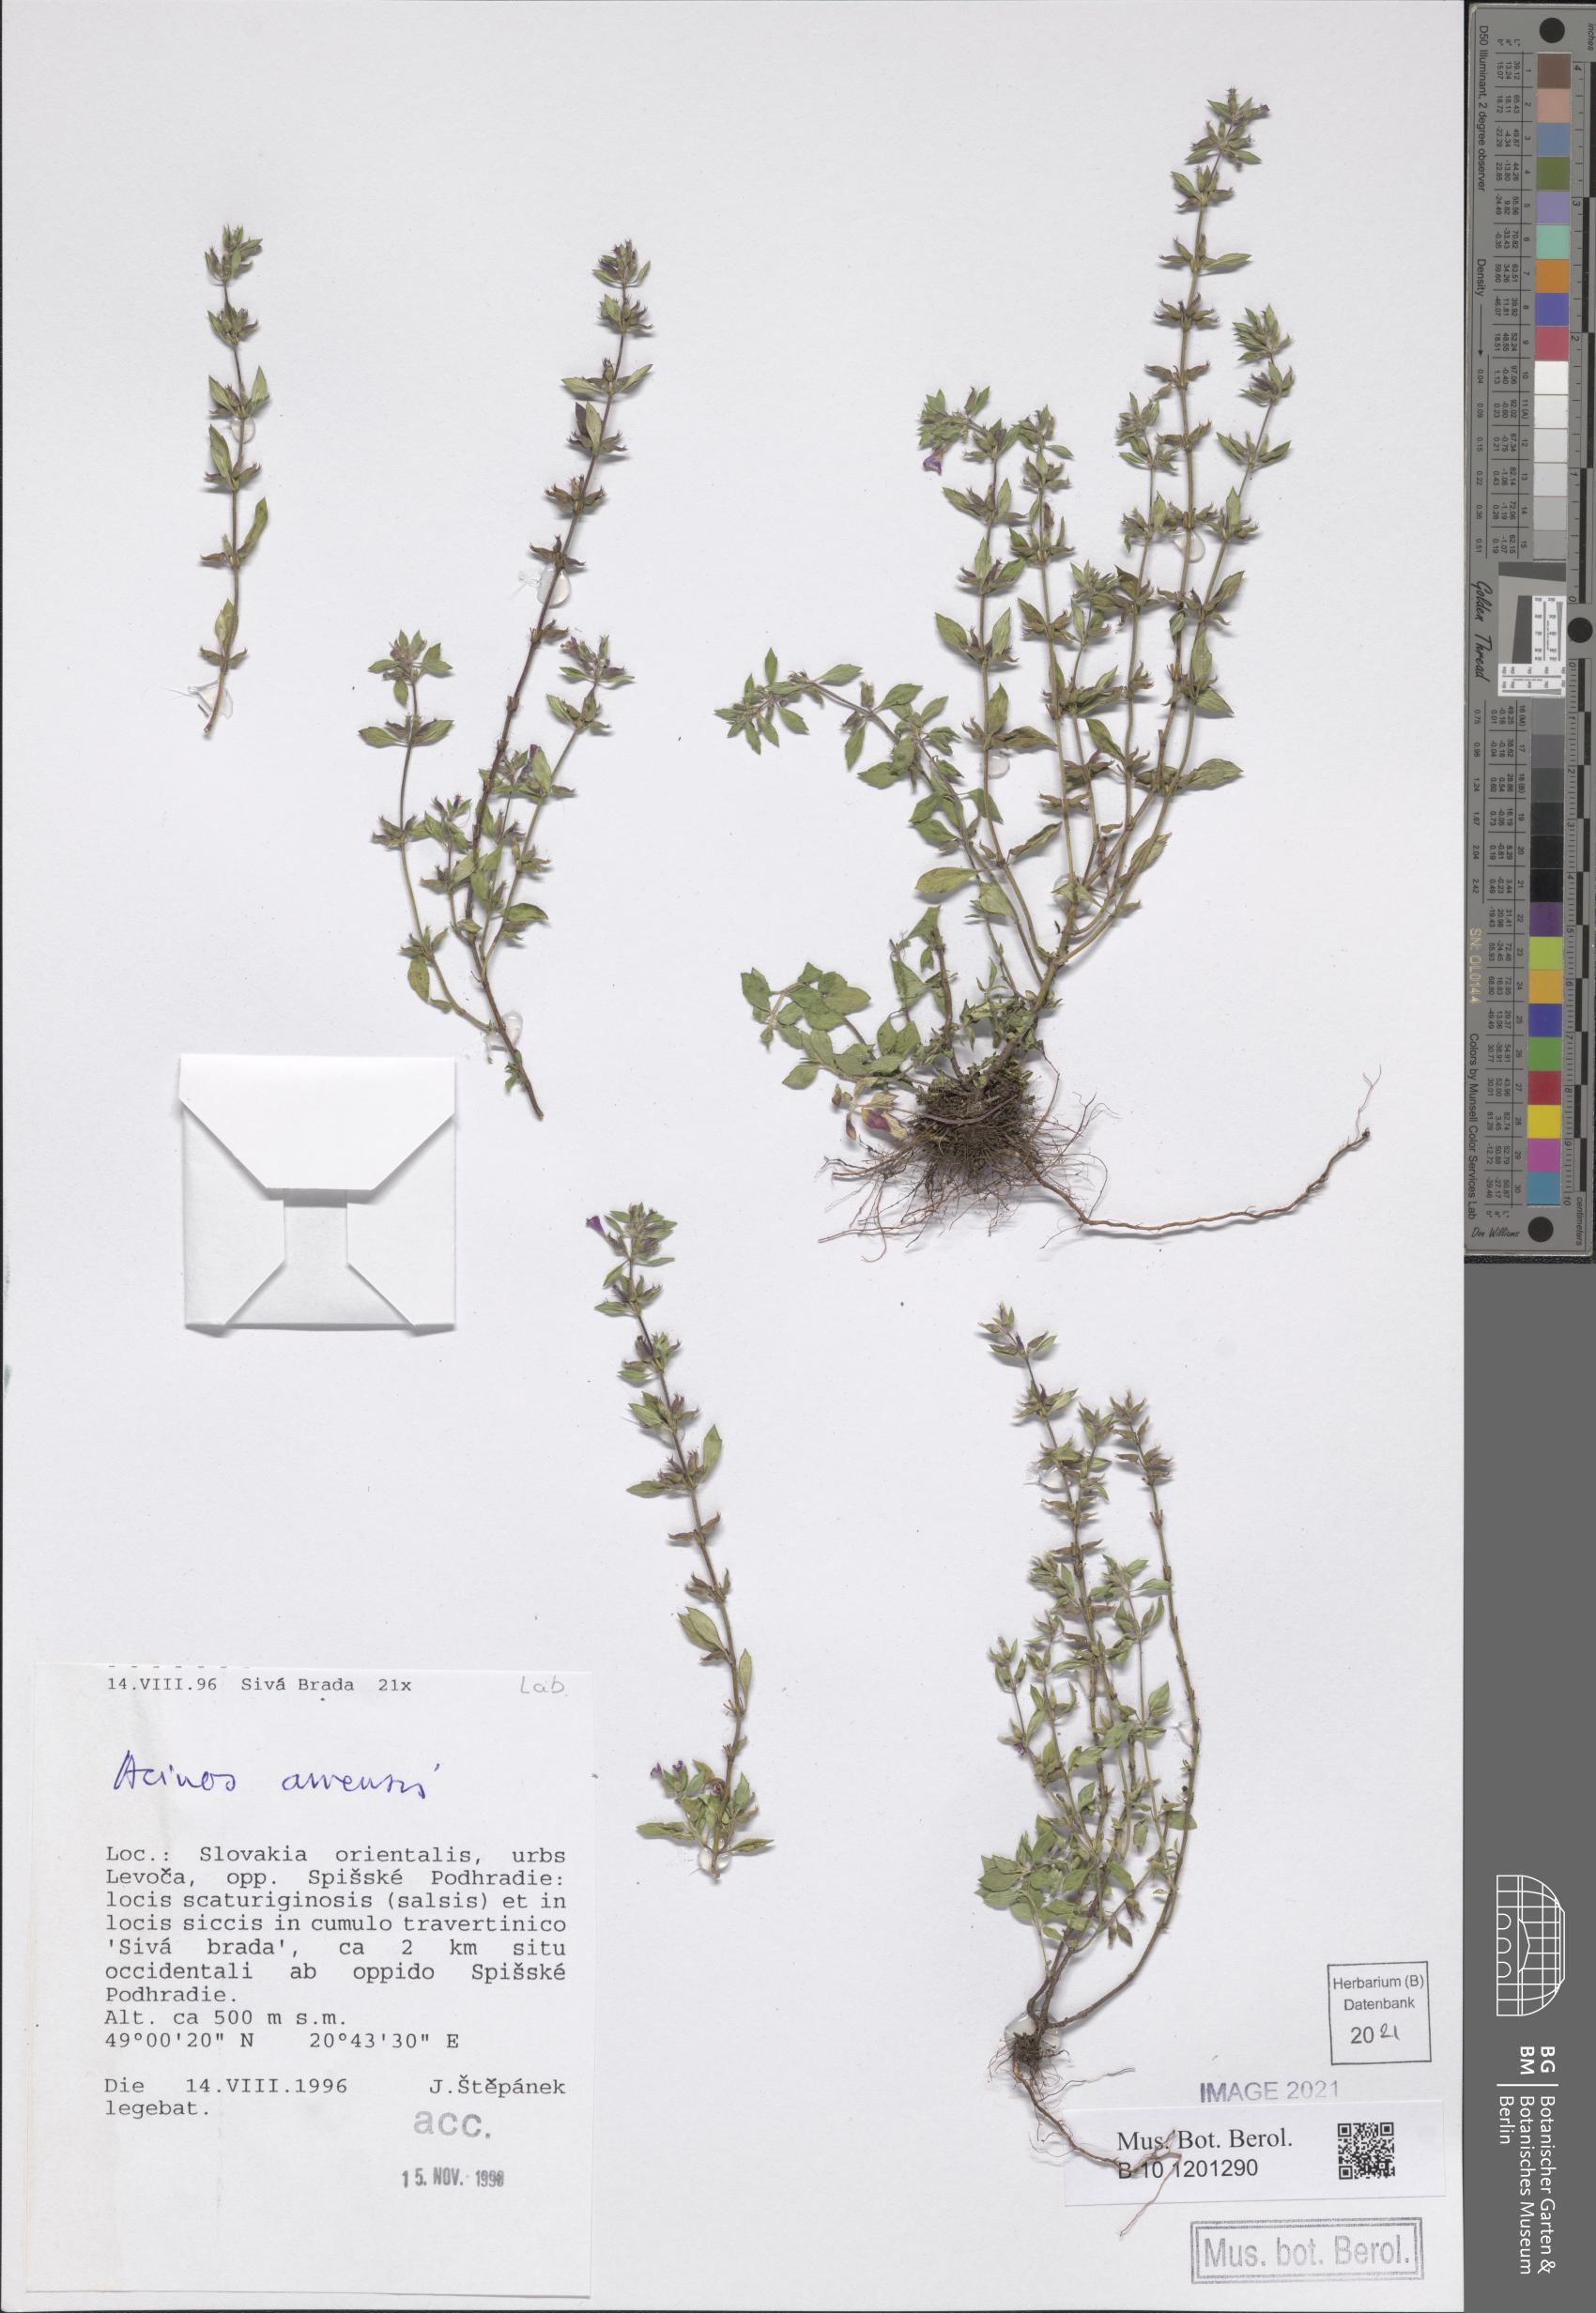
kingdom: Plantae
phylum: Tracheophyta
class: Magnoliopsida
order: Lamiales
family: Lamiaceae
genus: Clinopodium
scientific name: Clinopodium acinos
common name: Basil thyme
